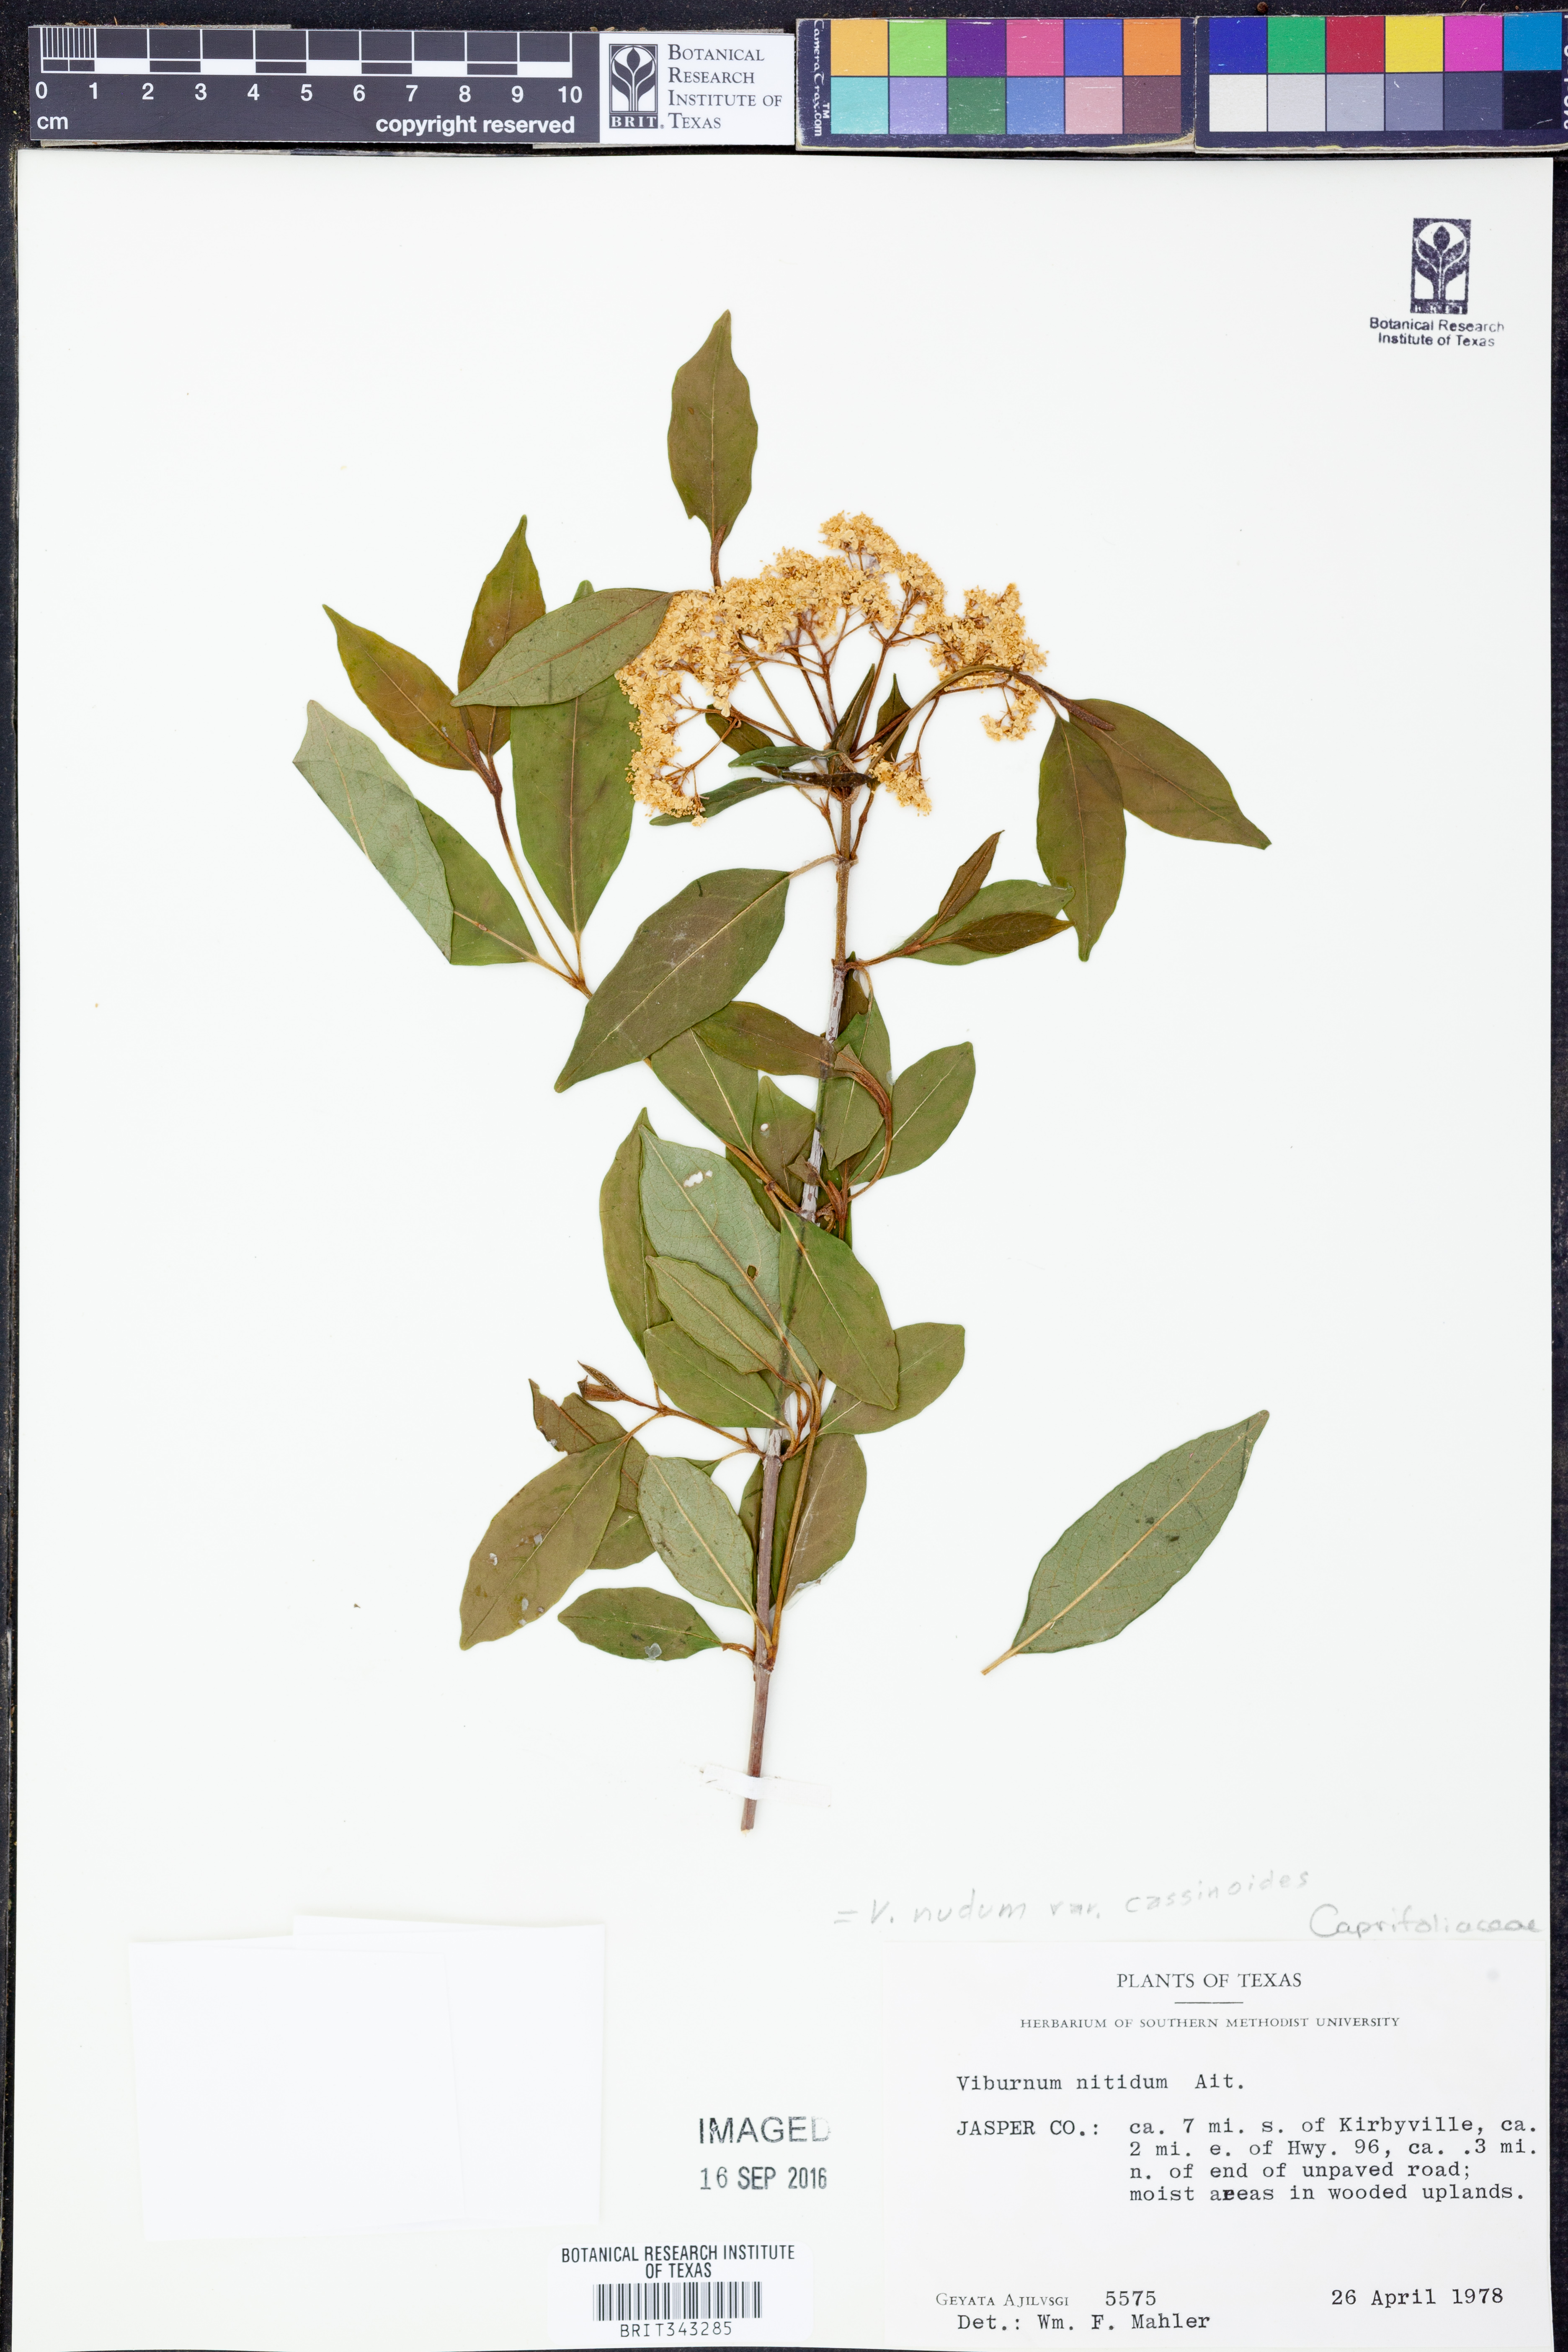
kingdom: Plantae
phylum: Tracheophyta
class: Magnoliopsida
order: Dipsacales
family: Viburnaceae
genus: Viburnum
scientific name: Viburnum cassinoides
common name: Swamp haw
